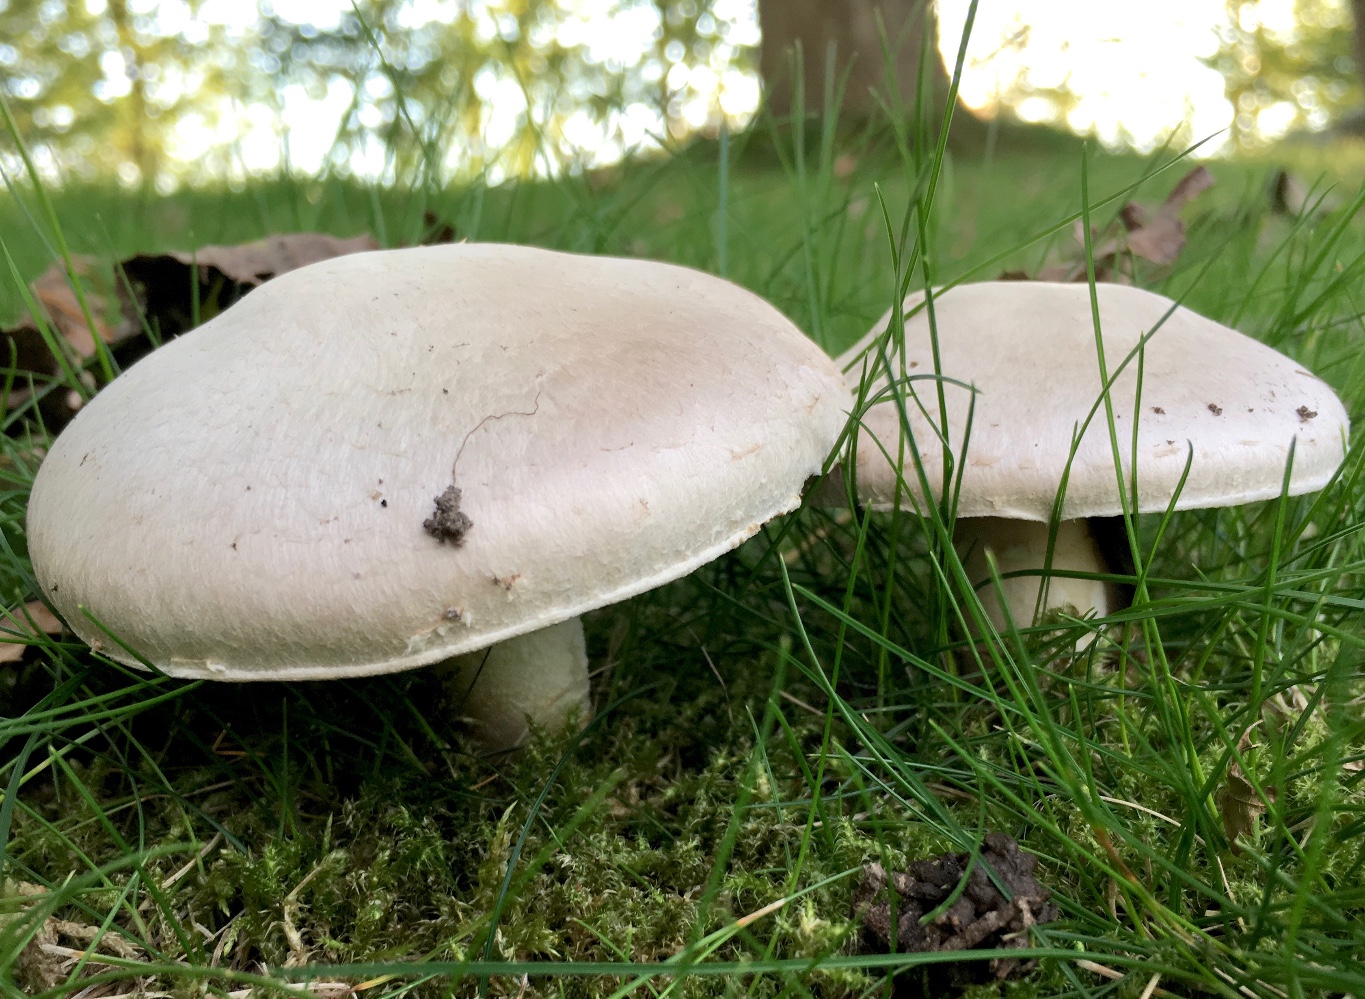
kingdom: Fungi
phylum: Basidiomycota
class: Agaricomycetes
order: Agaricales
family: Agaricaceae
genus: Agaricus
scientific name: Agaricus campestris
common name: mark-champignon
